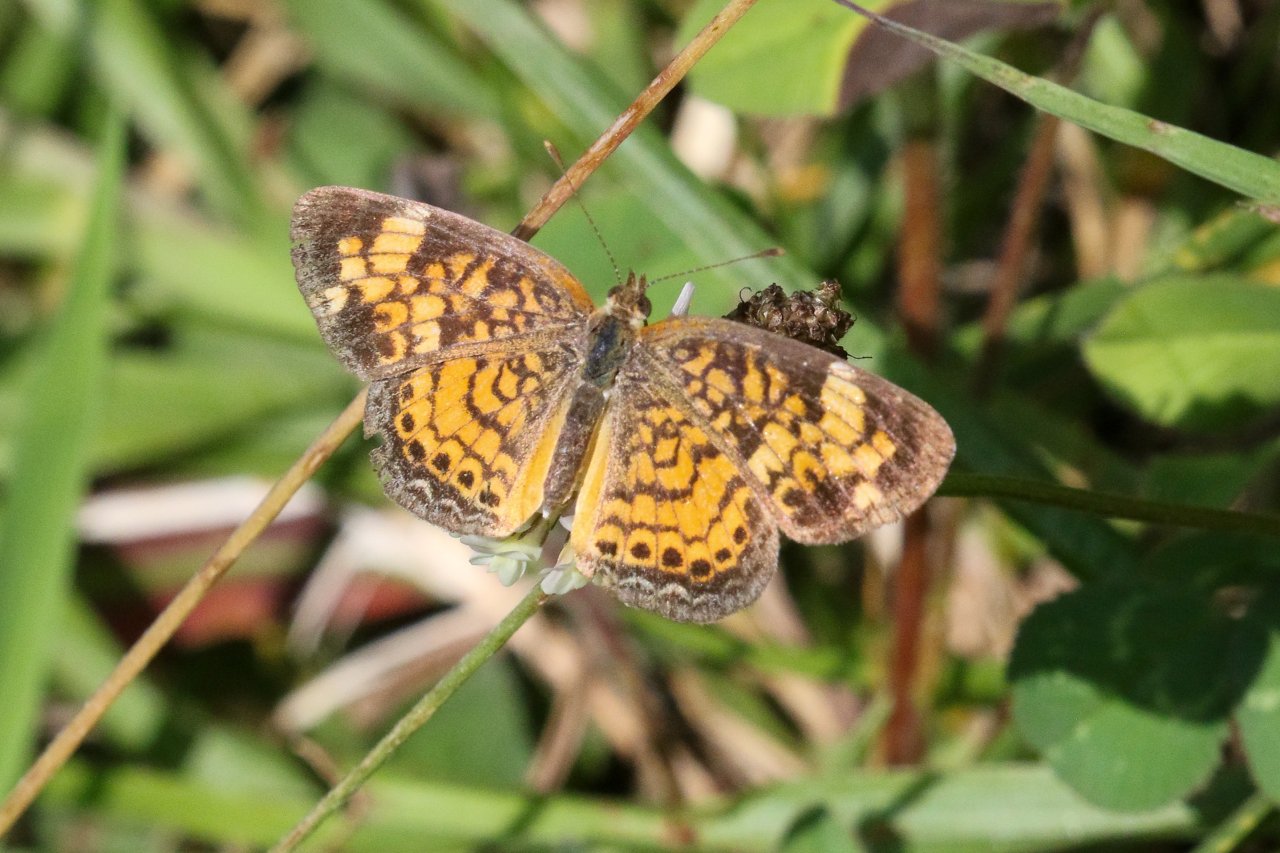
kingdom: Animalia
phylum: Arthropoda
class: Insecta
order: Lepidoptera
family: Nymphalidae
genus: Phyciodes
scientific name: Phyciodes tharos
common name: Pearl Crescent
